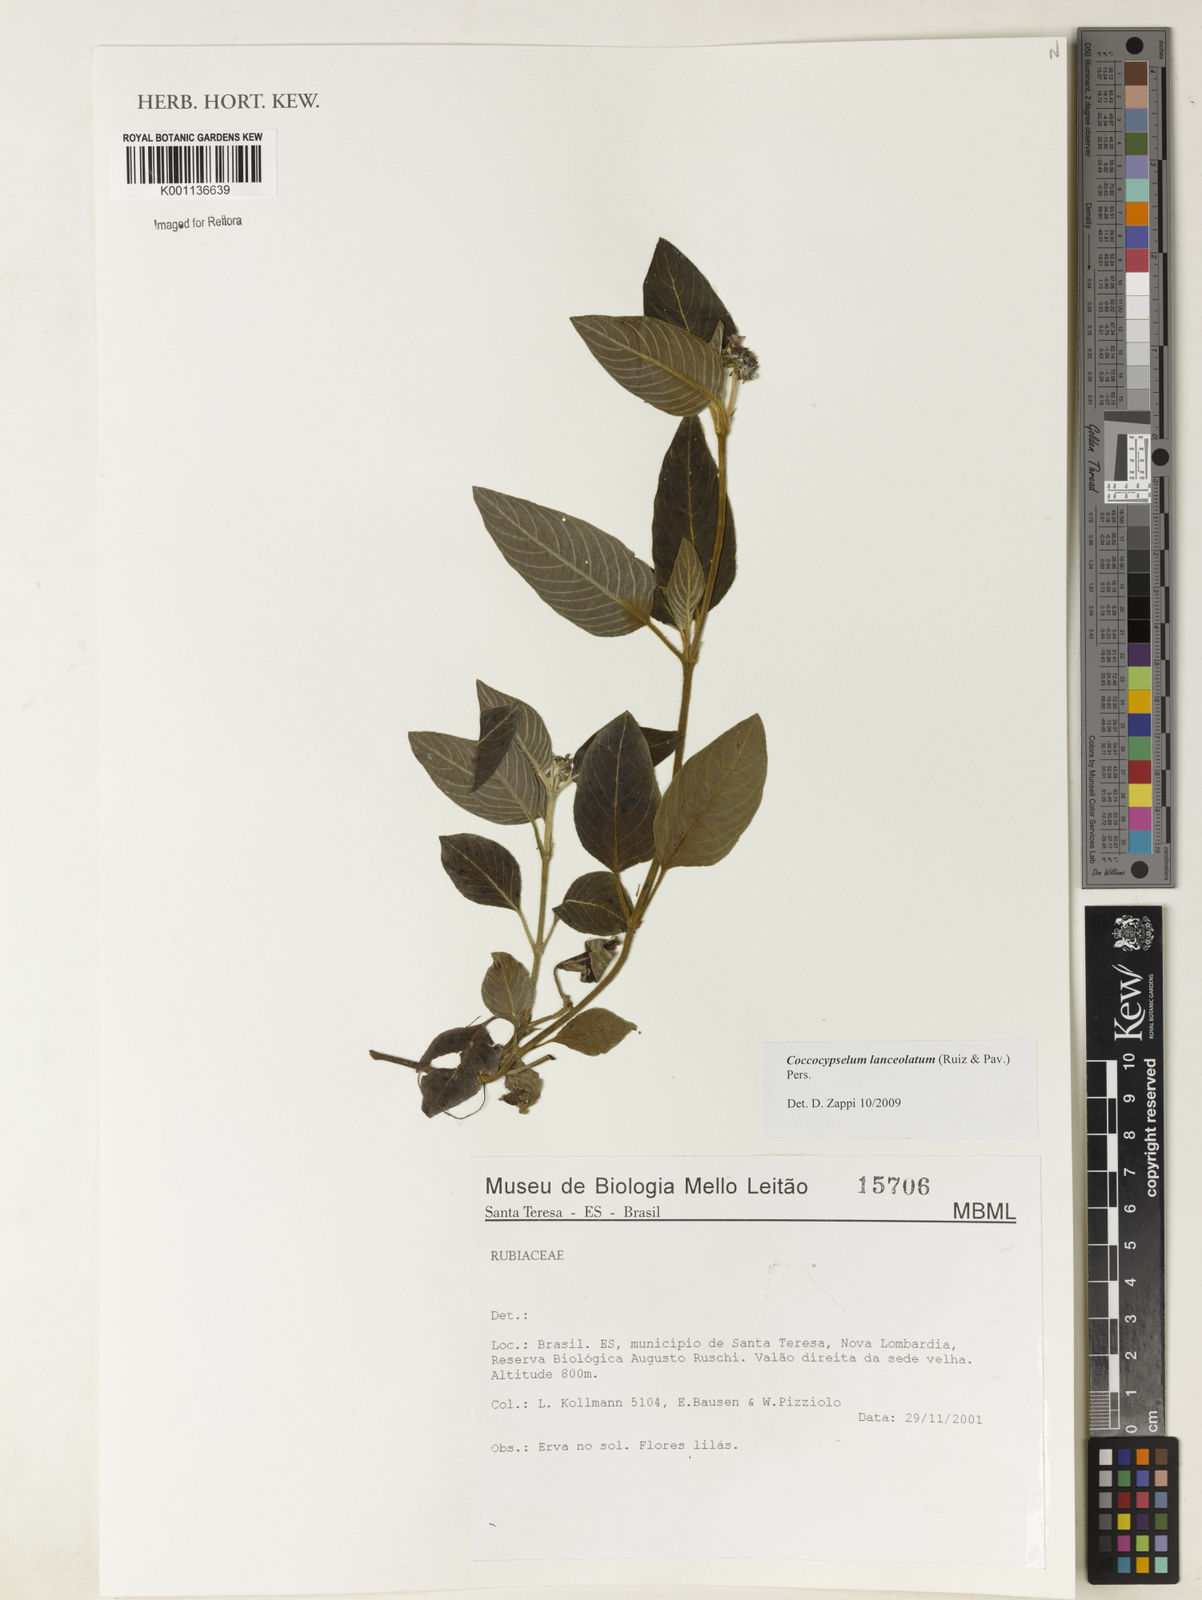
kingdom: Plantae
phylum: Tracheophyta
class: Magnoliopsida
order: Gentianales
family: Rubiaceae
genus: Coccocypselum
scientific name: Coccocypselum lanceolatum
